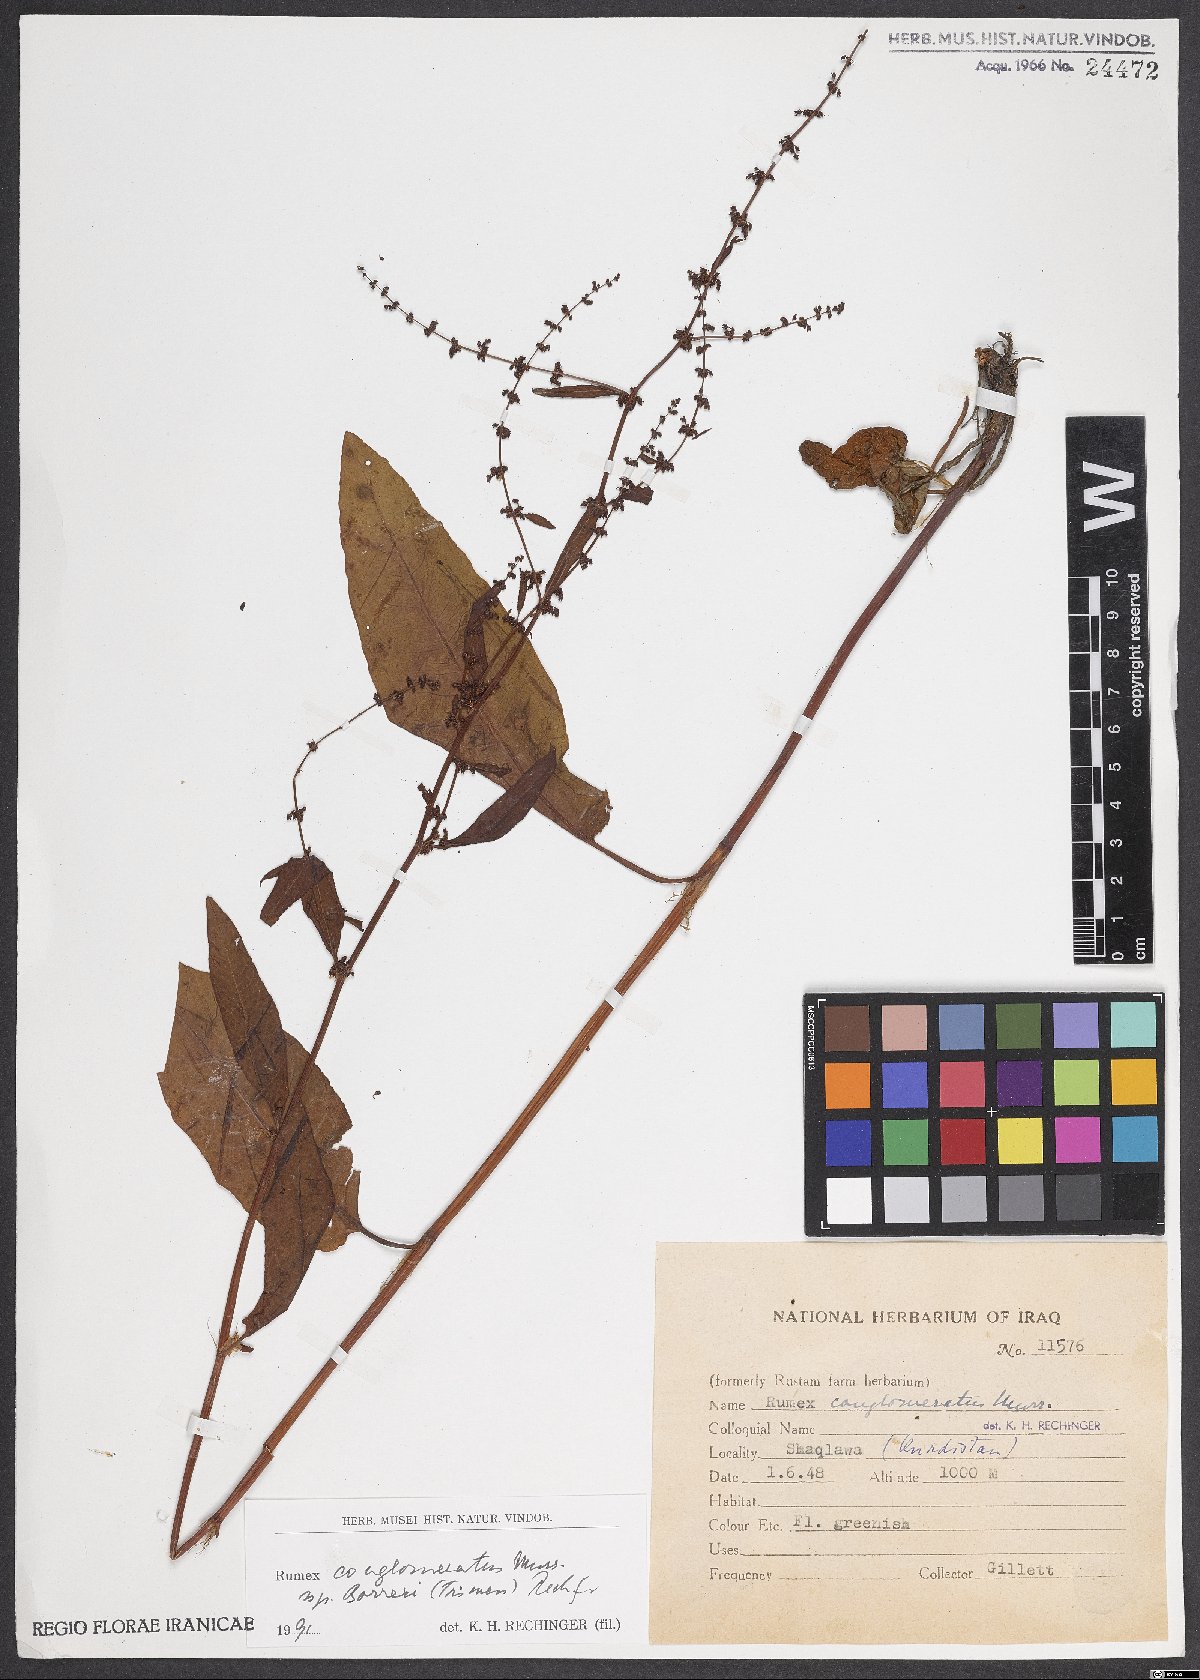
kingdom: Plantae
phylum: Tracheophyta
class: Magnoliopsida
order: Caryophyllales
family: Polygonaceae
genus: Rumex
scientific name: Rumex conglomeratus
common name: Clustered dock
